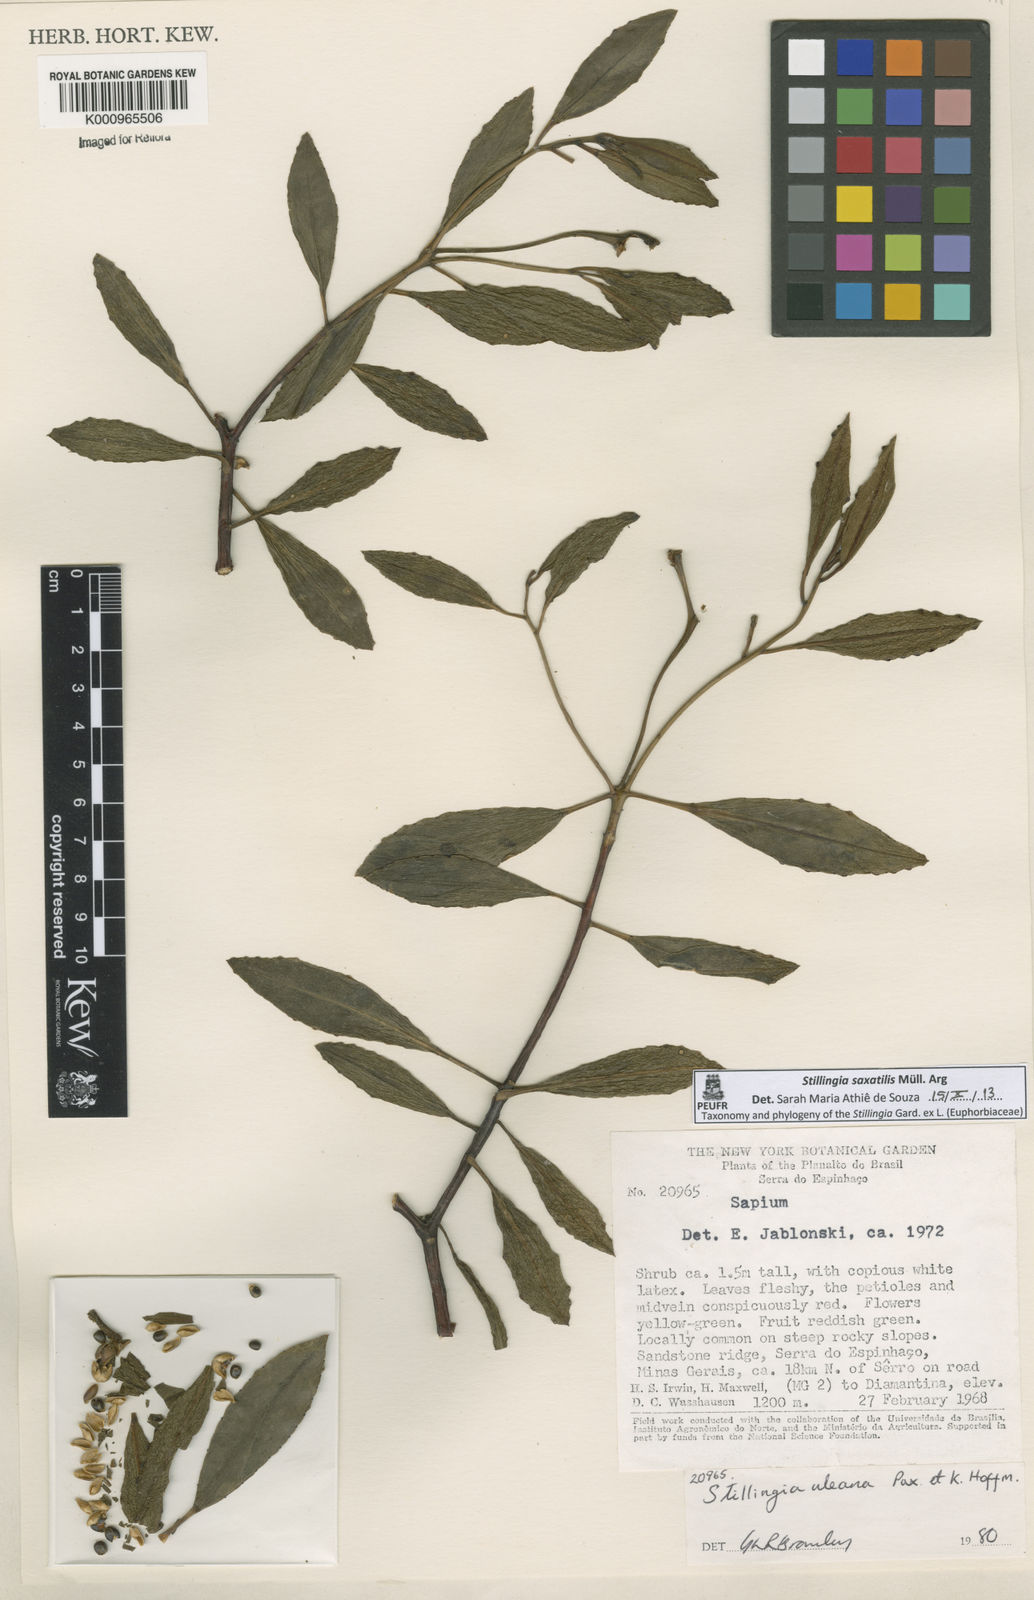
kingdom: Plantae
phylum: Tracheophyta
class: Magnoliopsida
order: Malpighiales
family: Euphorbiaceae
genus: Stillingia
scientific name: Stillingia
